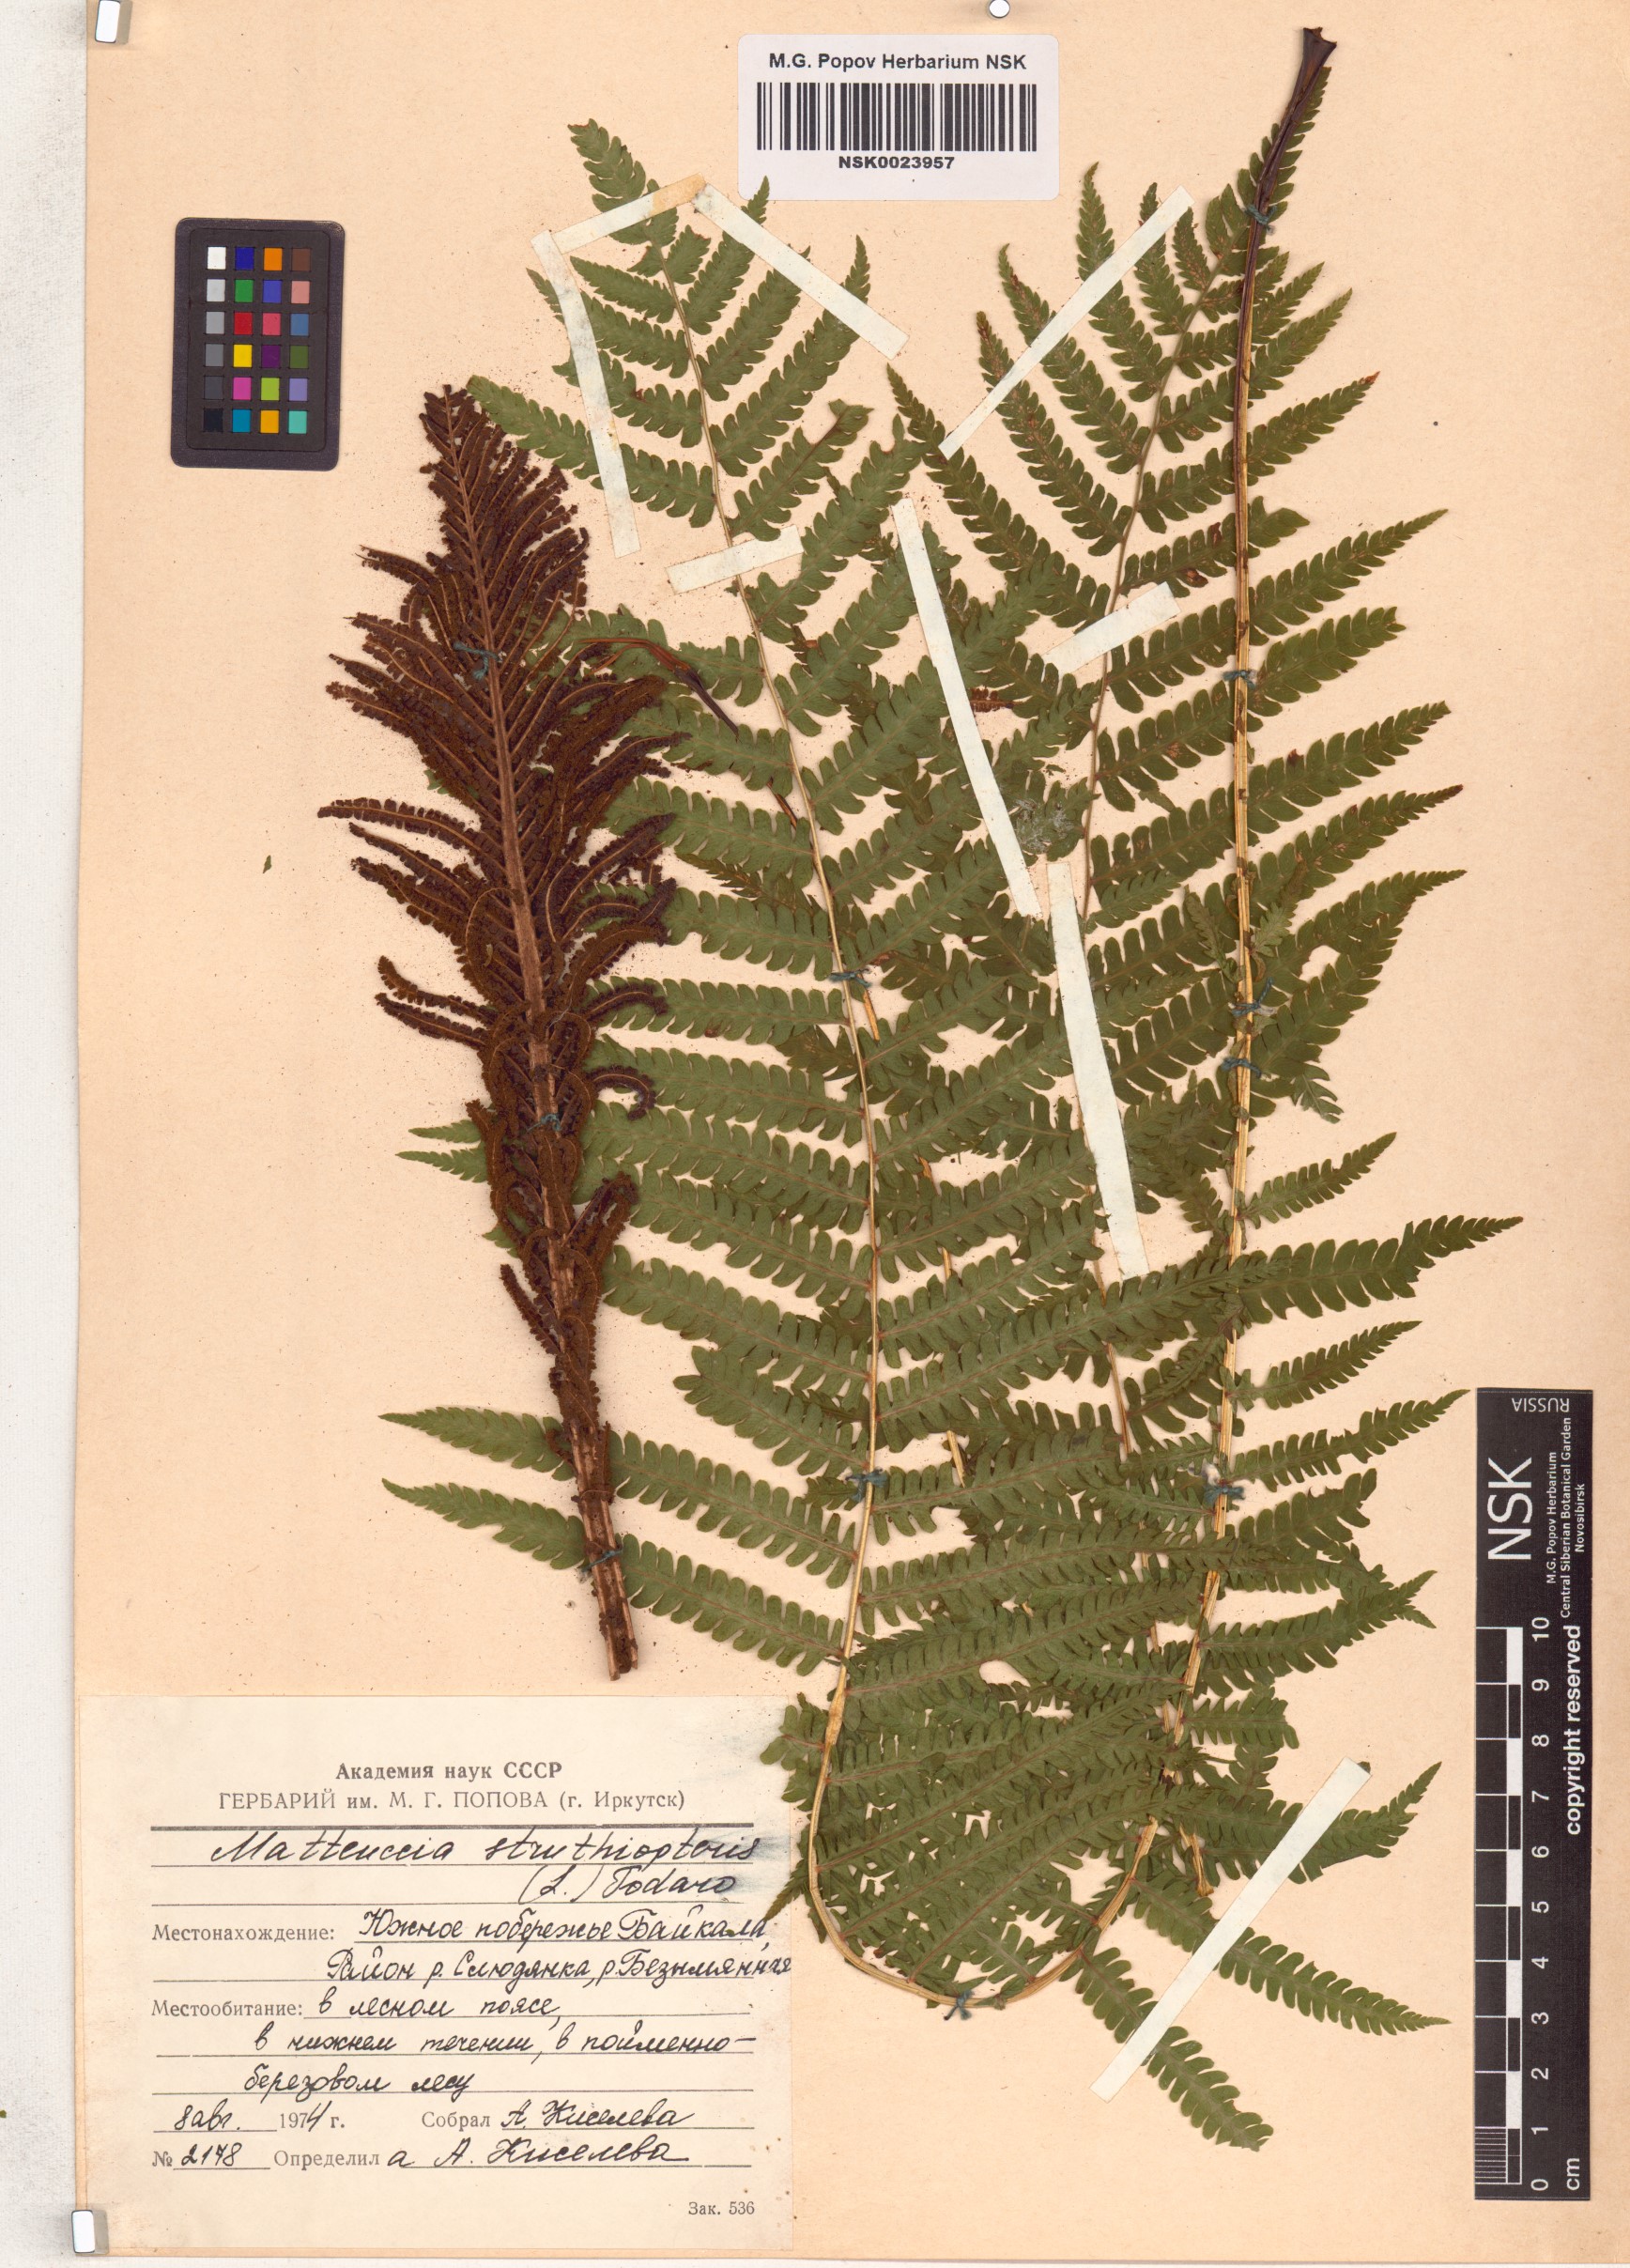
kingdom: Plantae
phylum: Tracheophyta
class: Polypodiopsida
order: Polypodiales
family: Onocleaceae
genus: Matteuccia
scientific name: Matteuccia struthiopteris
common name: Ostrich fern
